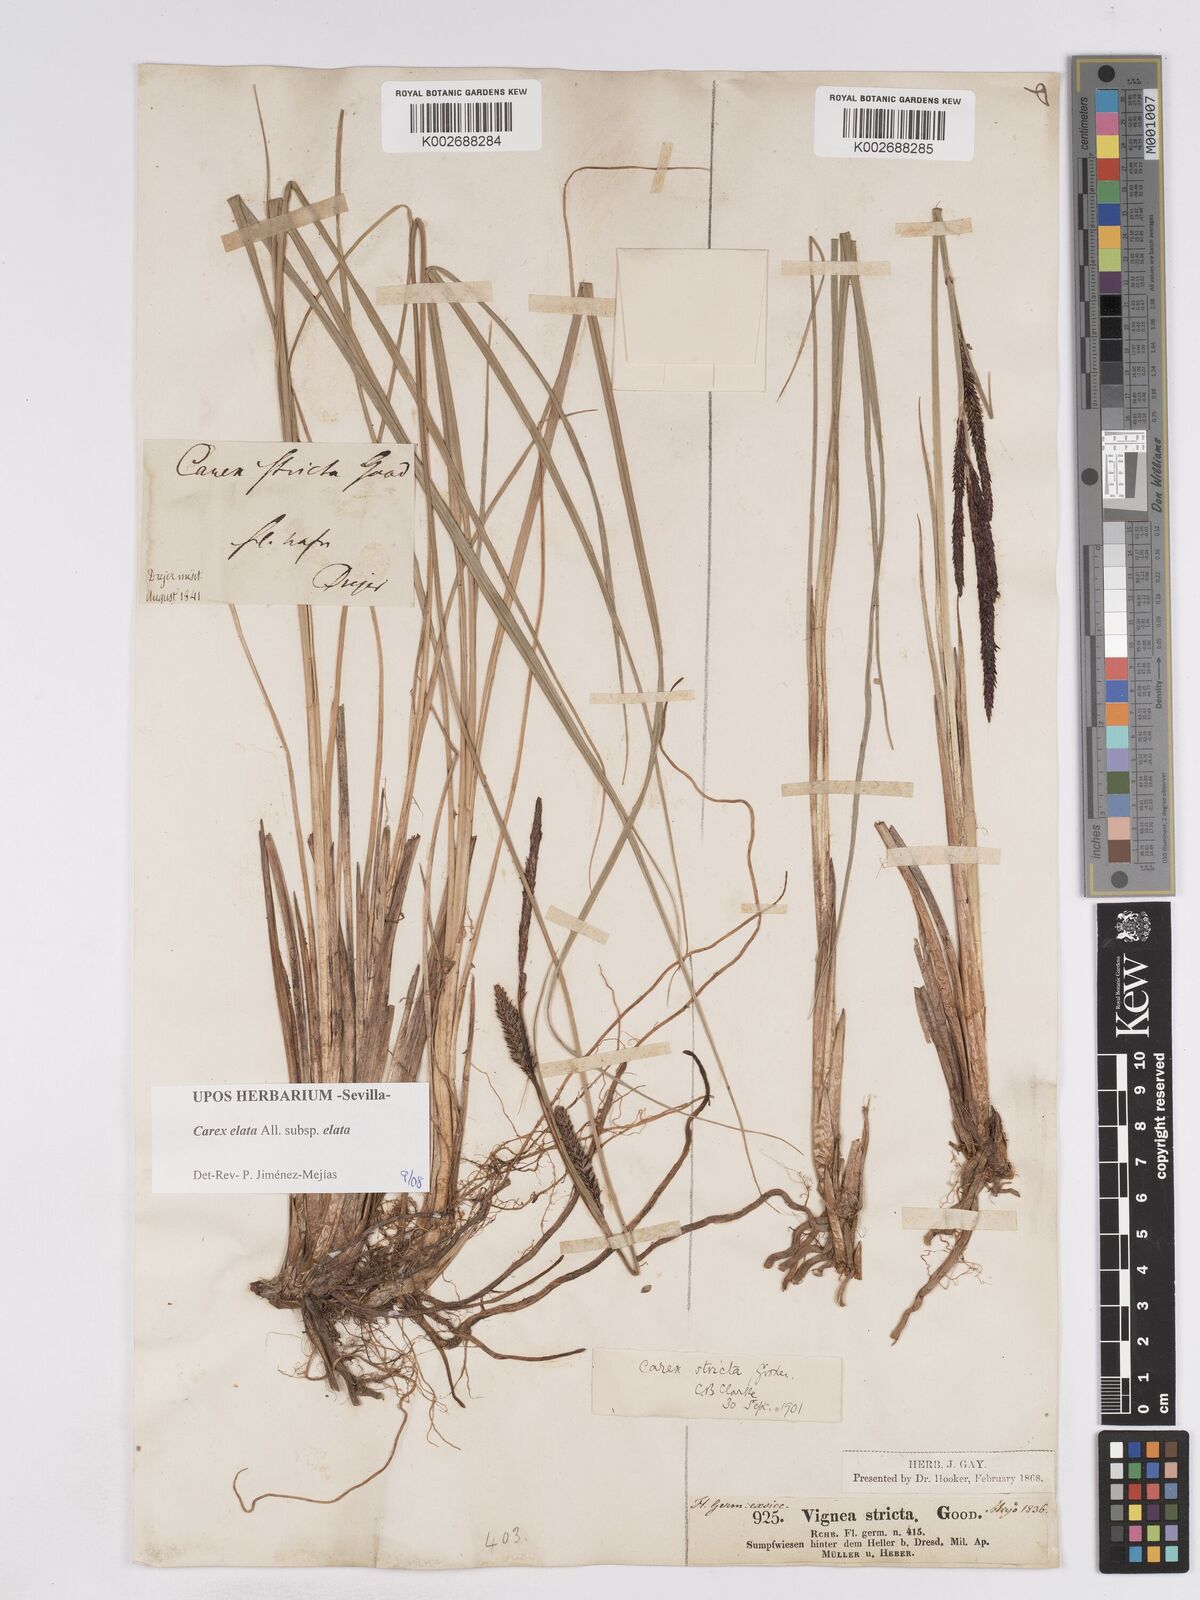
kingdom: Plantae
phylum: Tracheophyta
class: Liliopsida
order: Poales
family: Cyperaceae
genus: Carex
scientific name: Carex elata
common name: Tufted sedge
